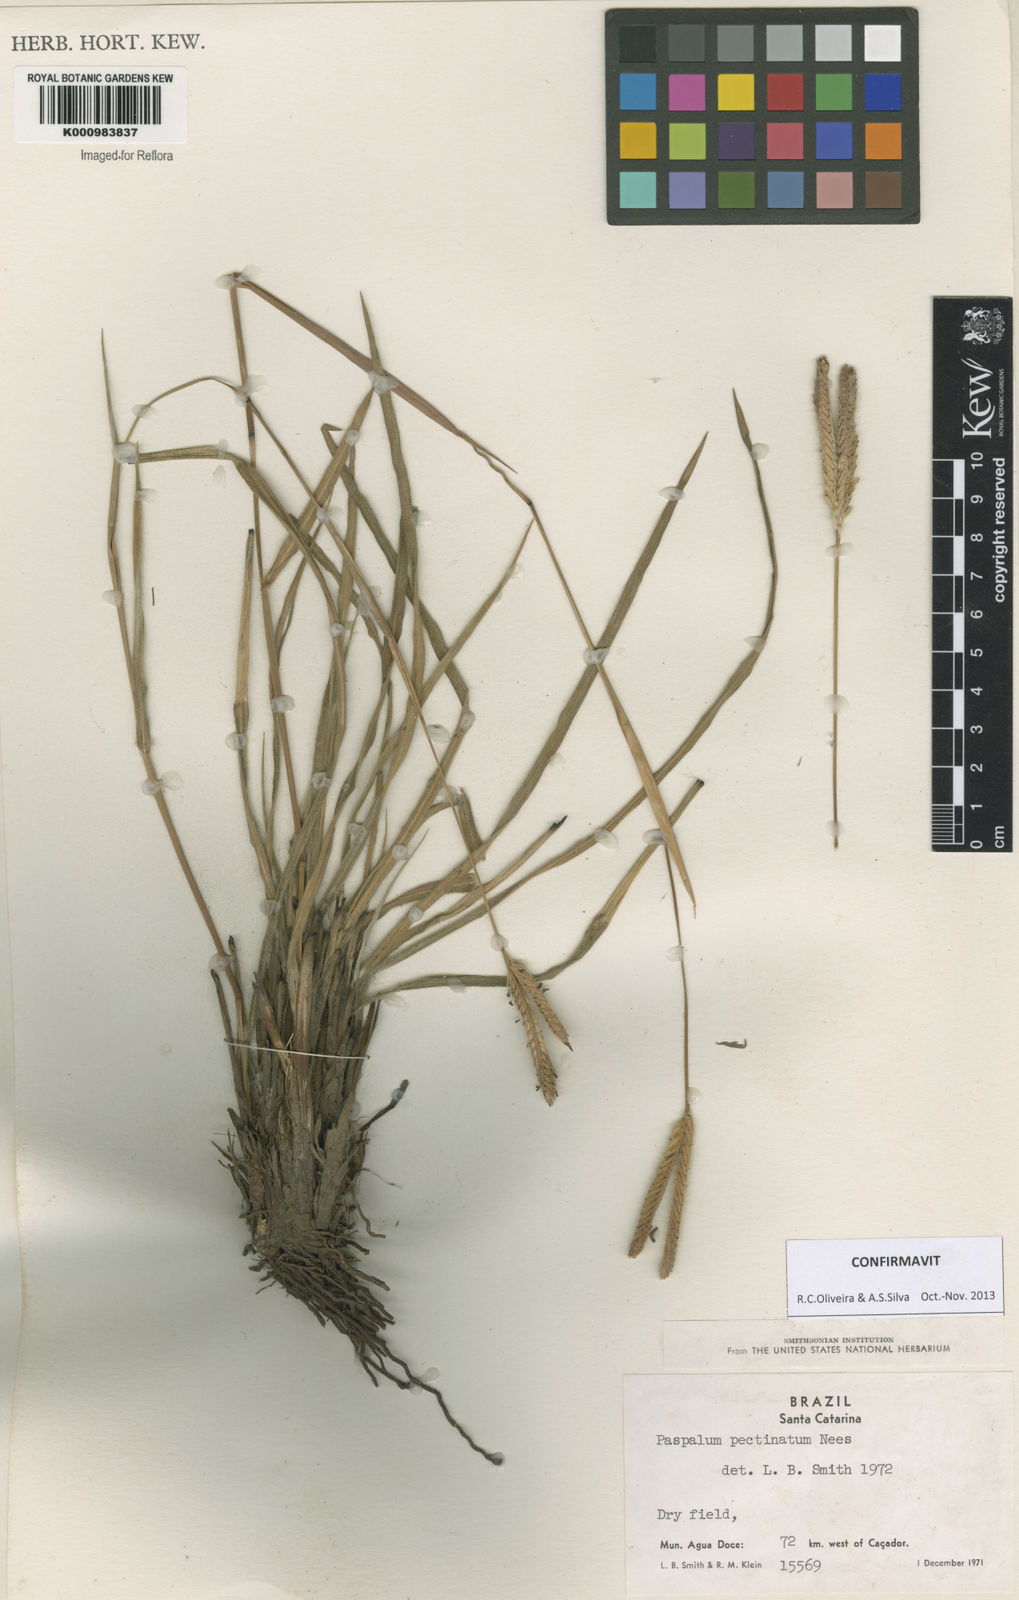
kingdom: Plantae
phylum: Tracheophyta
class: Liliopsida
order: Poales
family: Poaceae
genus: Paspalum
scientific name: Paspalum
